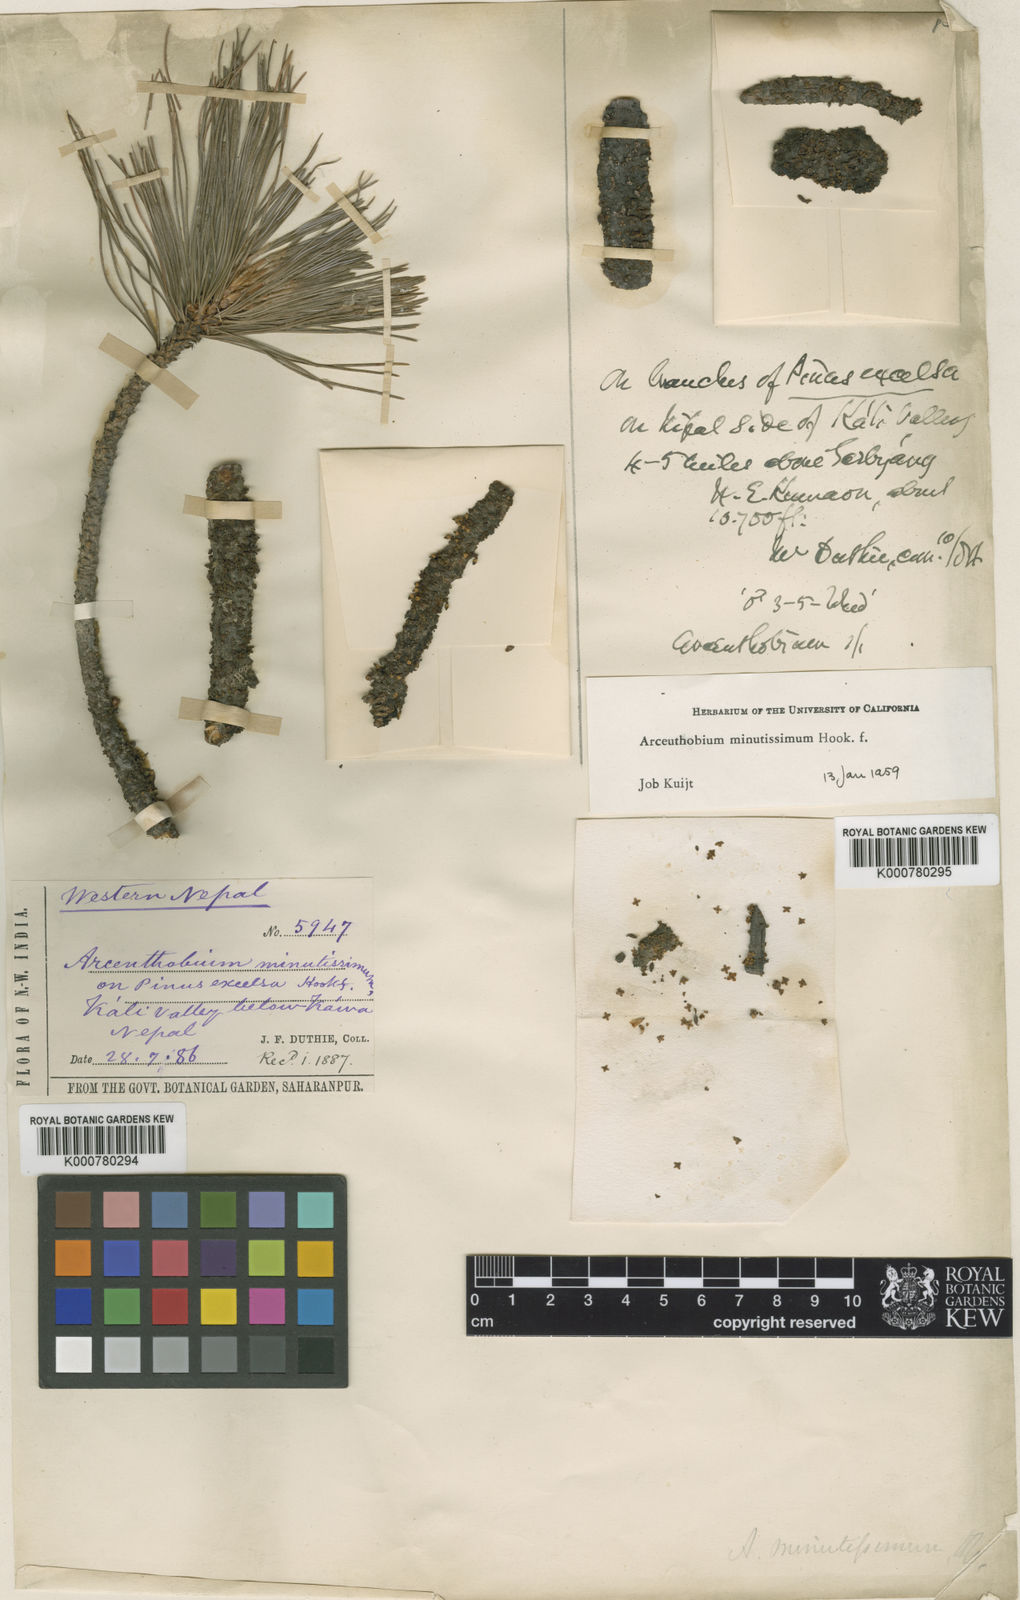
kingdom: Plantae
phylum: Tracheophyta
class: Magnoliopsida
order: Santalales
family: Viscaceae
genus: Arceuthobium
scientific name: Arceuthobium minutissimum
